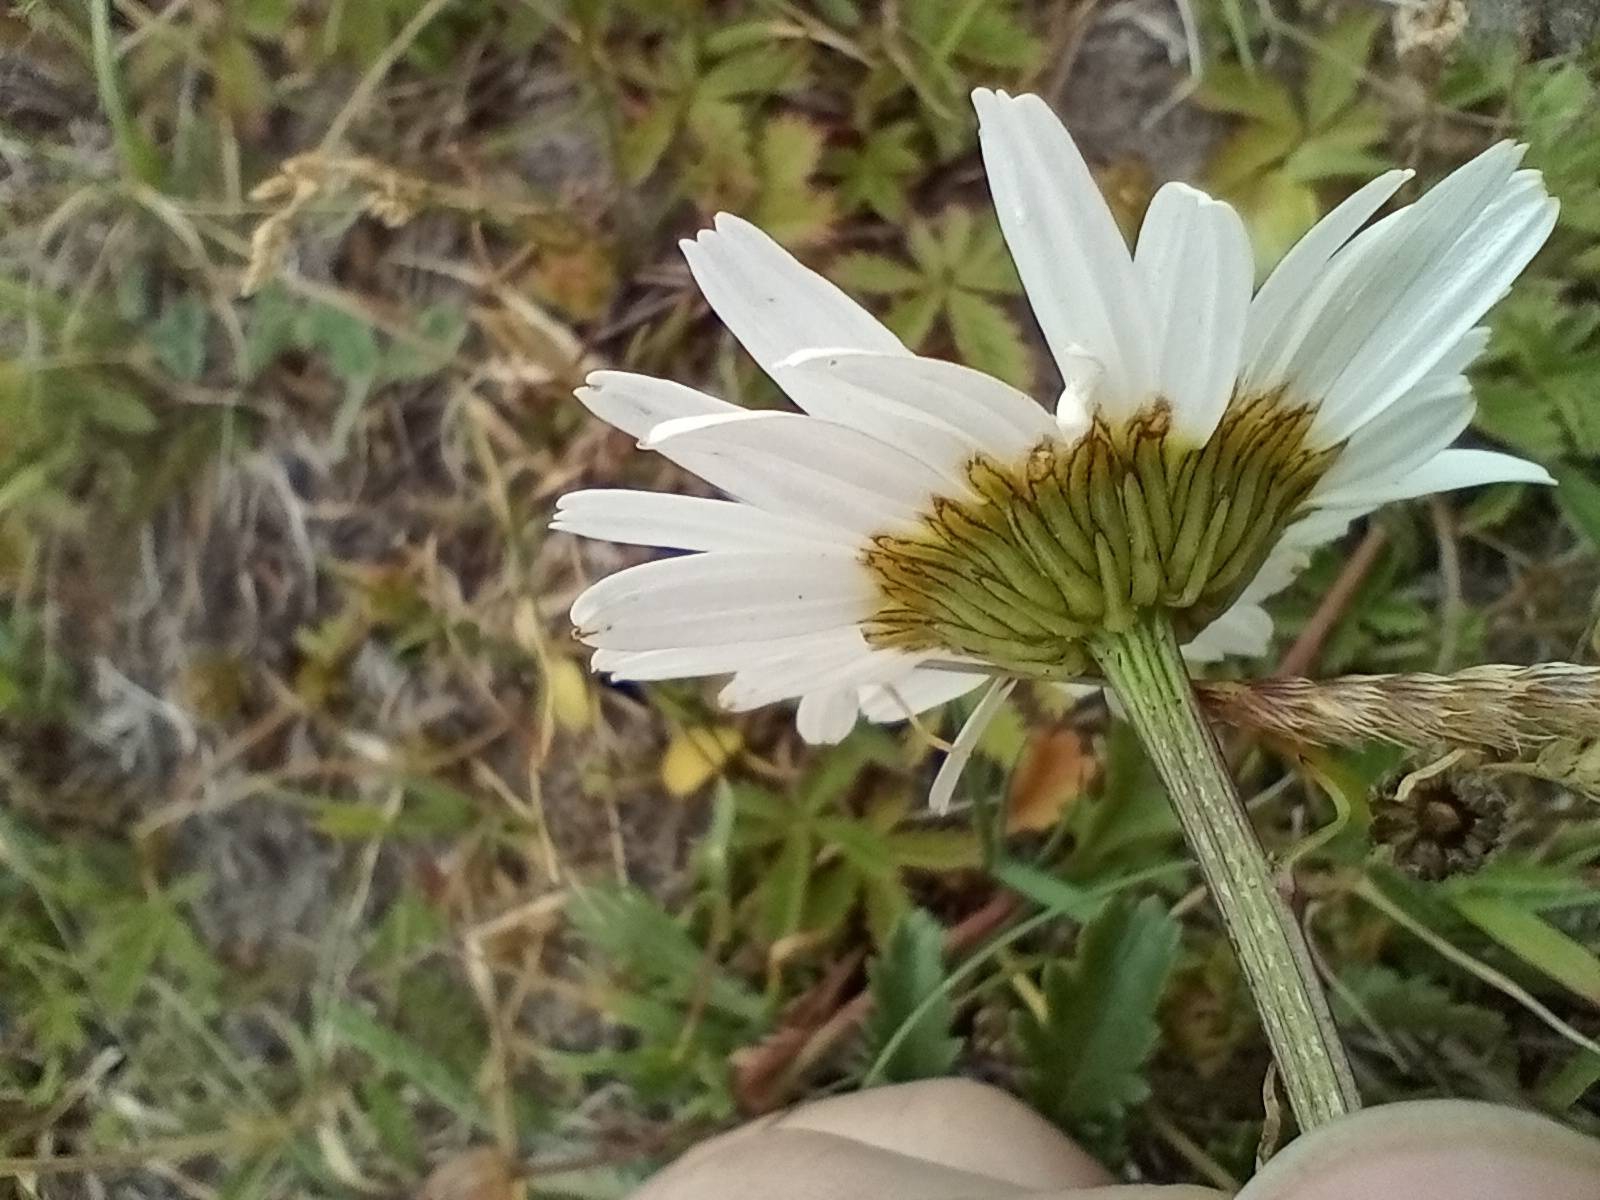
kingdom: Plantae
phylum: Tracheophyta
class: Magnoliopsida
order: Asterales
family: Asteraceae
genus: Leucanthemum
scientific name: Leucanthemum vulgare
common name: Hvid okseøje
